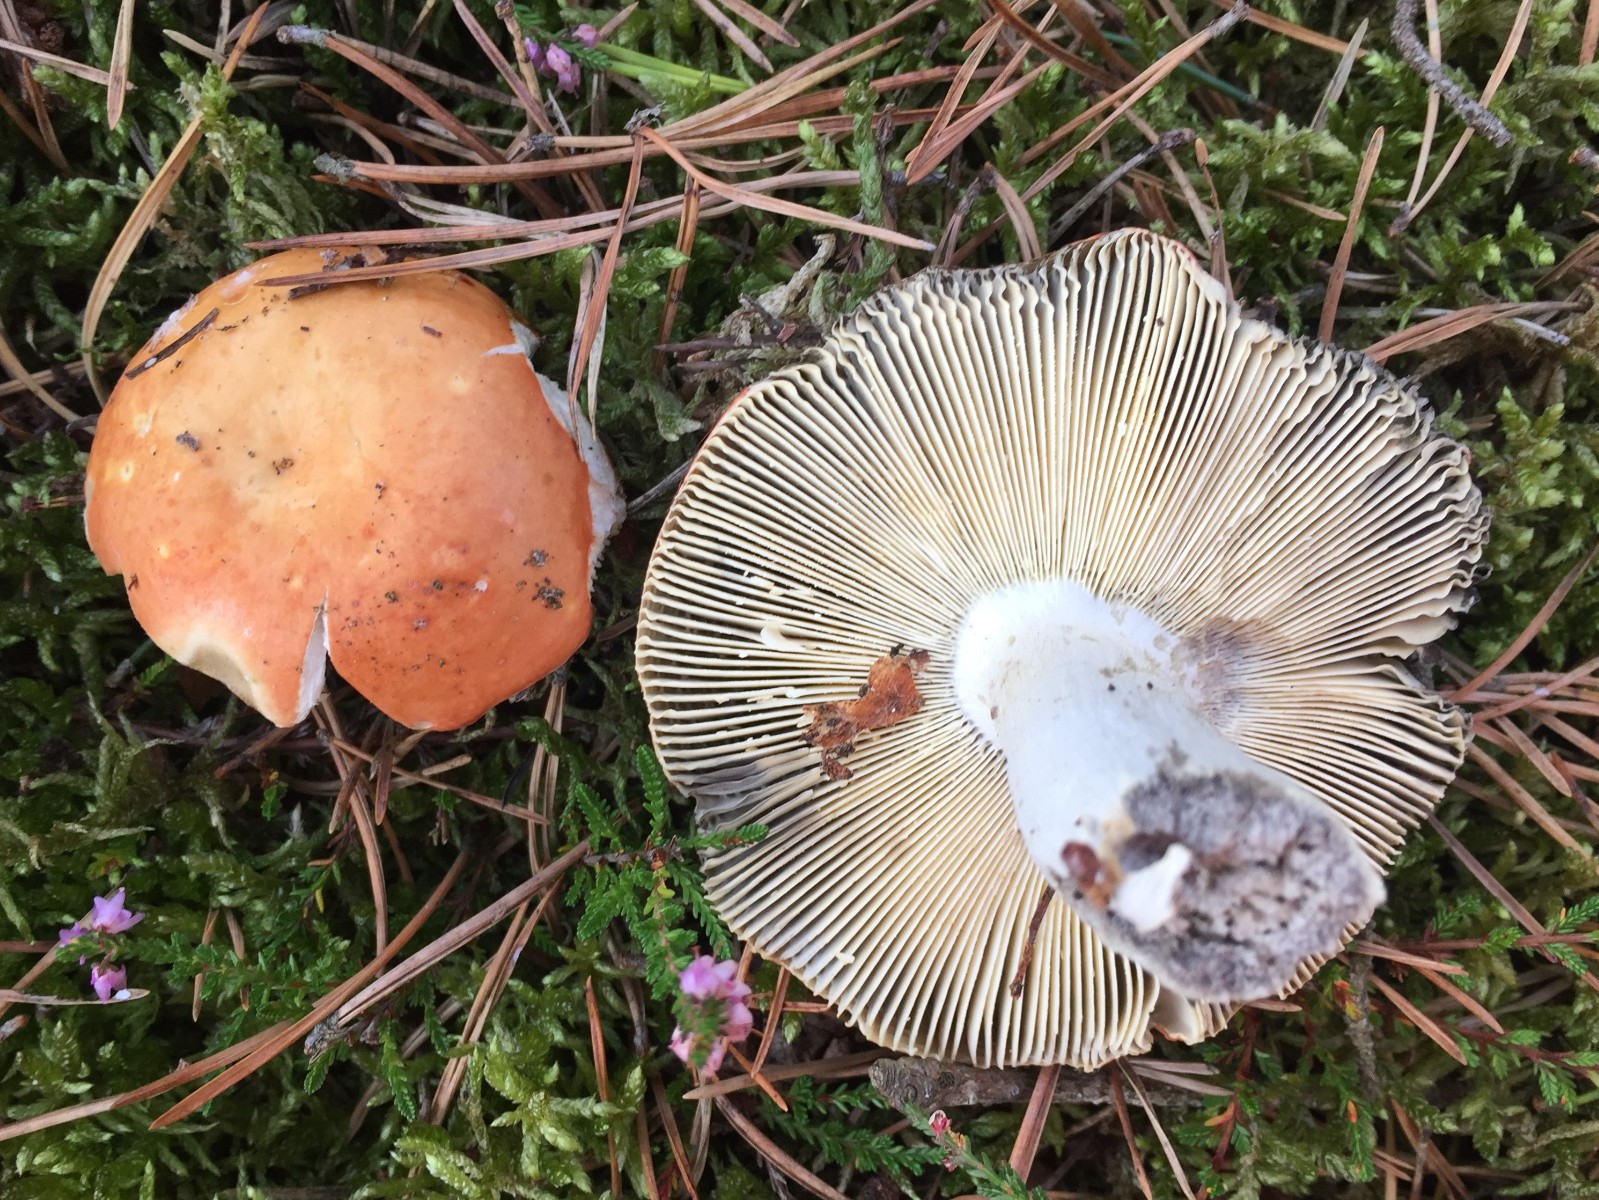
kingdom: Fungi
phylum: Basidiomycota
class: Agaricomycetes
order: Russulales
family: Russulaceae
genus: Russula
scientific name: Russula decolorans
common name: afblegende skørhat
